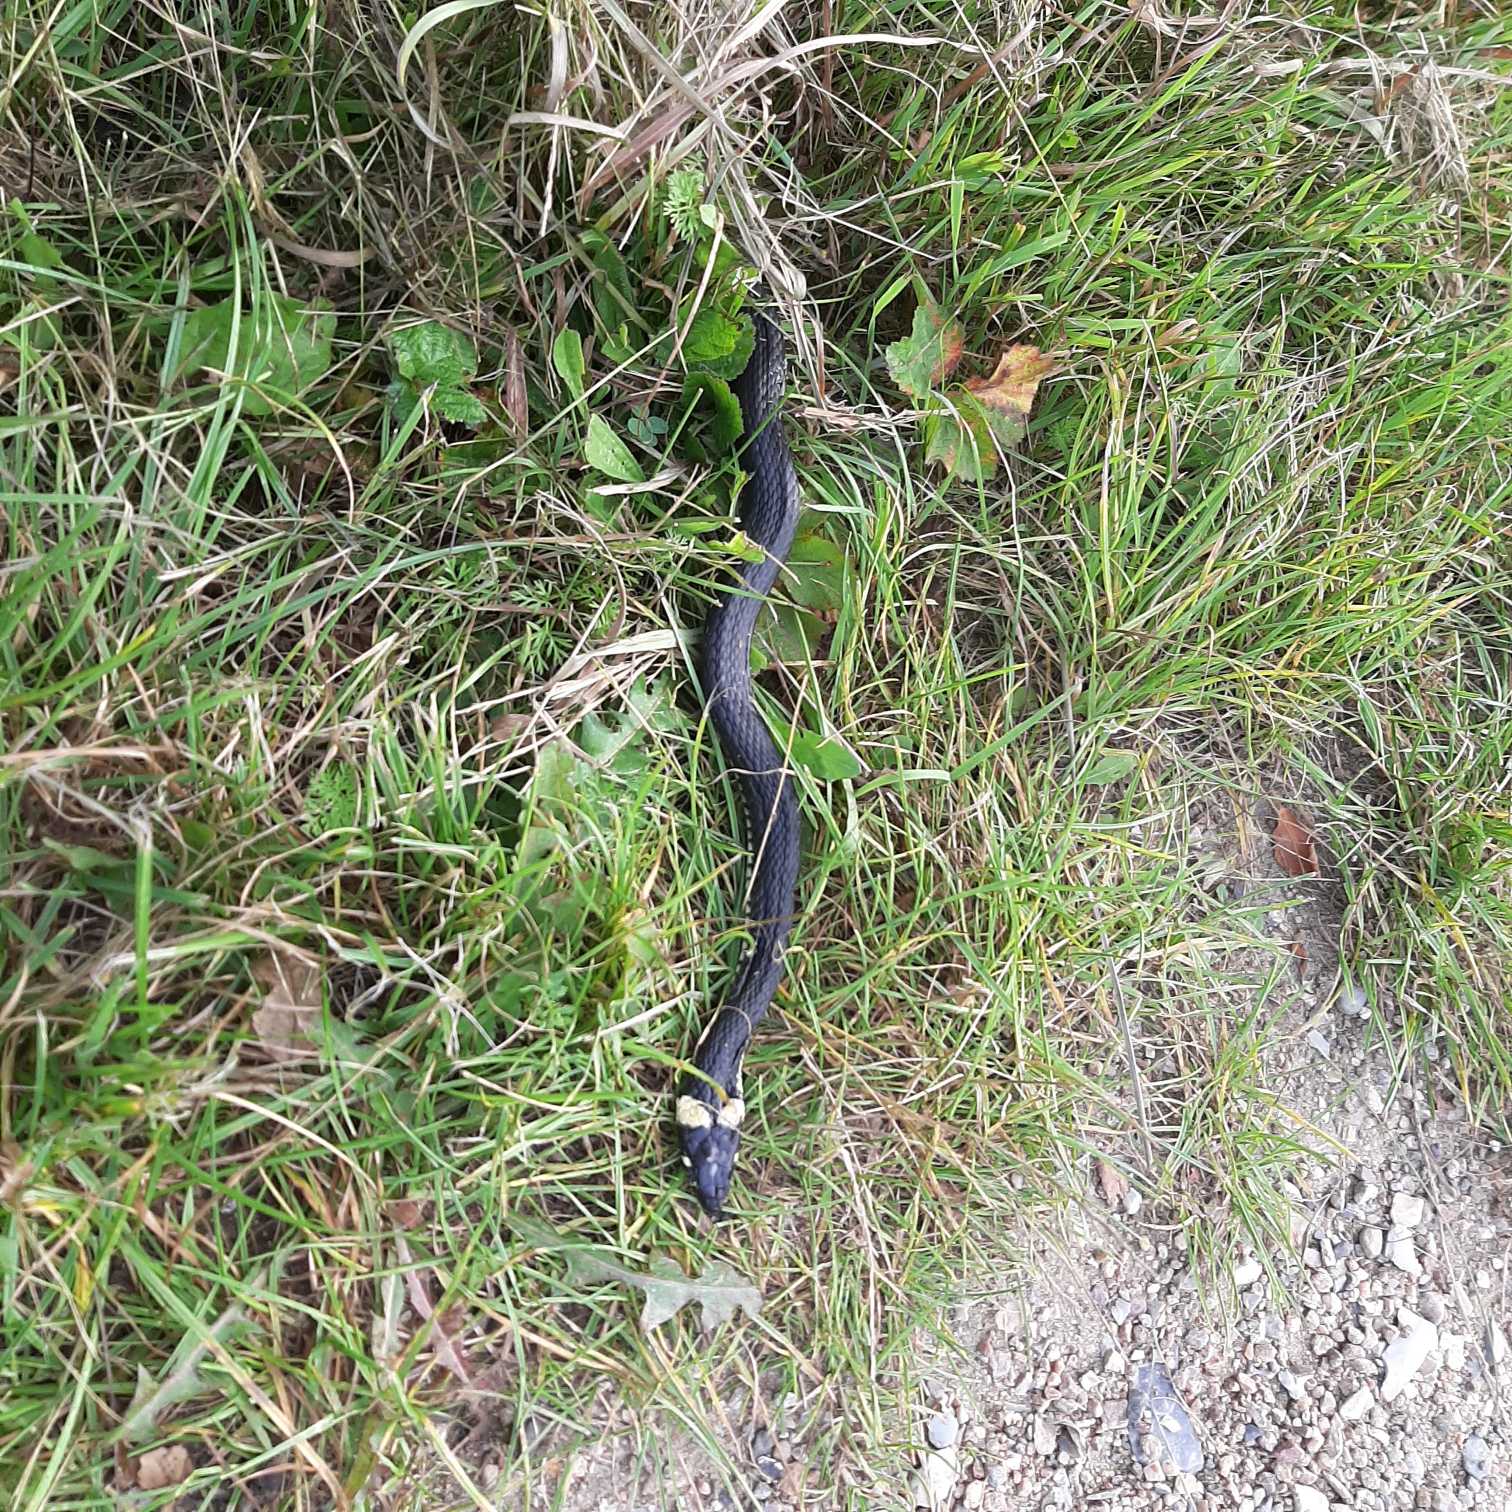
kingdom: Animalia
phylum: Chordata
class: Squamata
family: Colubridae
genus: Natrix
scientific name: Natrix natrix
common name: Snog
